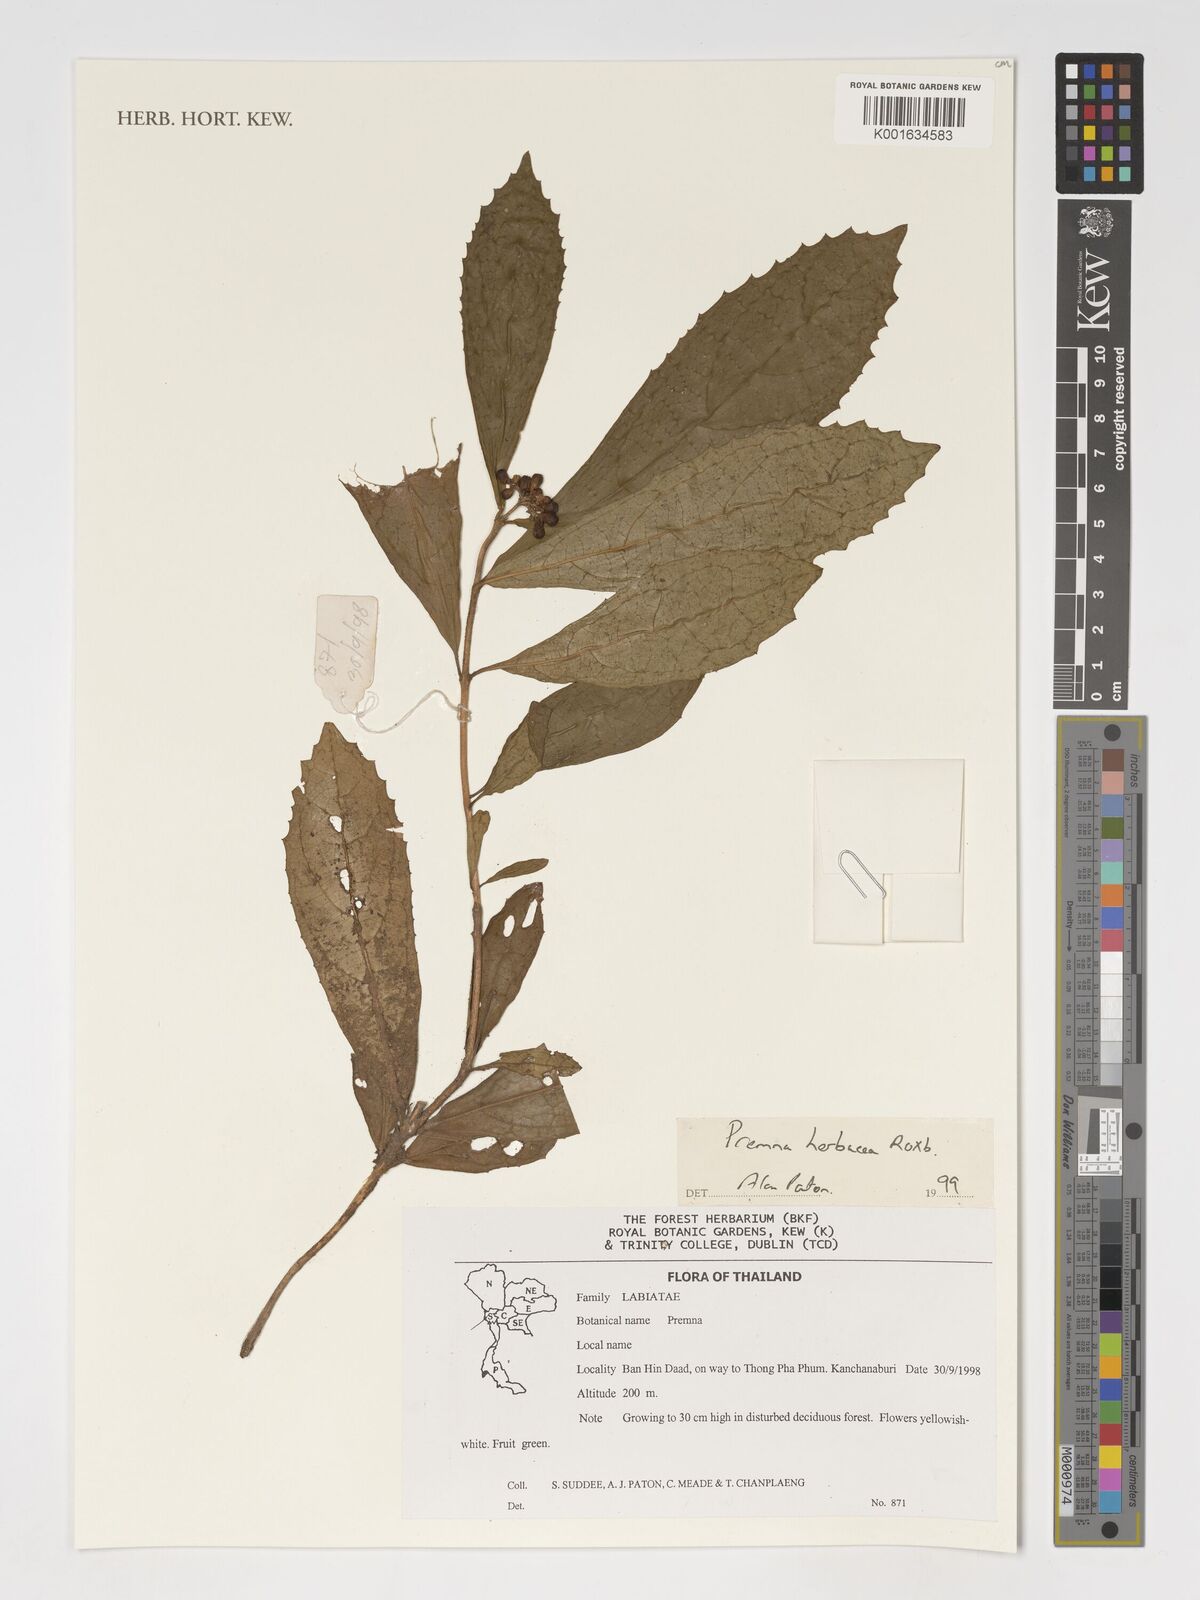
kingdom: Plantae
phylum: Tracheophyta
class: Magnoliopsida
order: Lamiales
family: Lamiaceae
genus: Premna
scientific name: Premna herbacea
